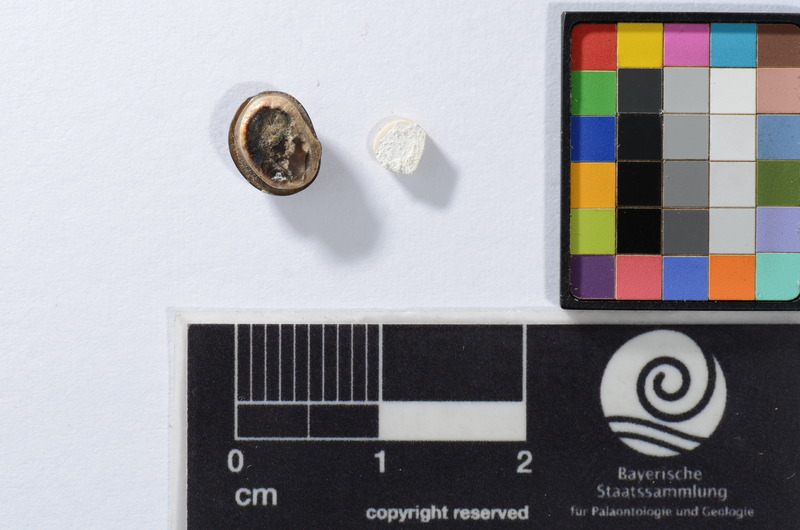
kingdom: Animalia
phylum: Chordata
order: Anguilliformes
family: Phyllodontidae
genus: Phyllodus
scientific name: Phyllodus
